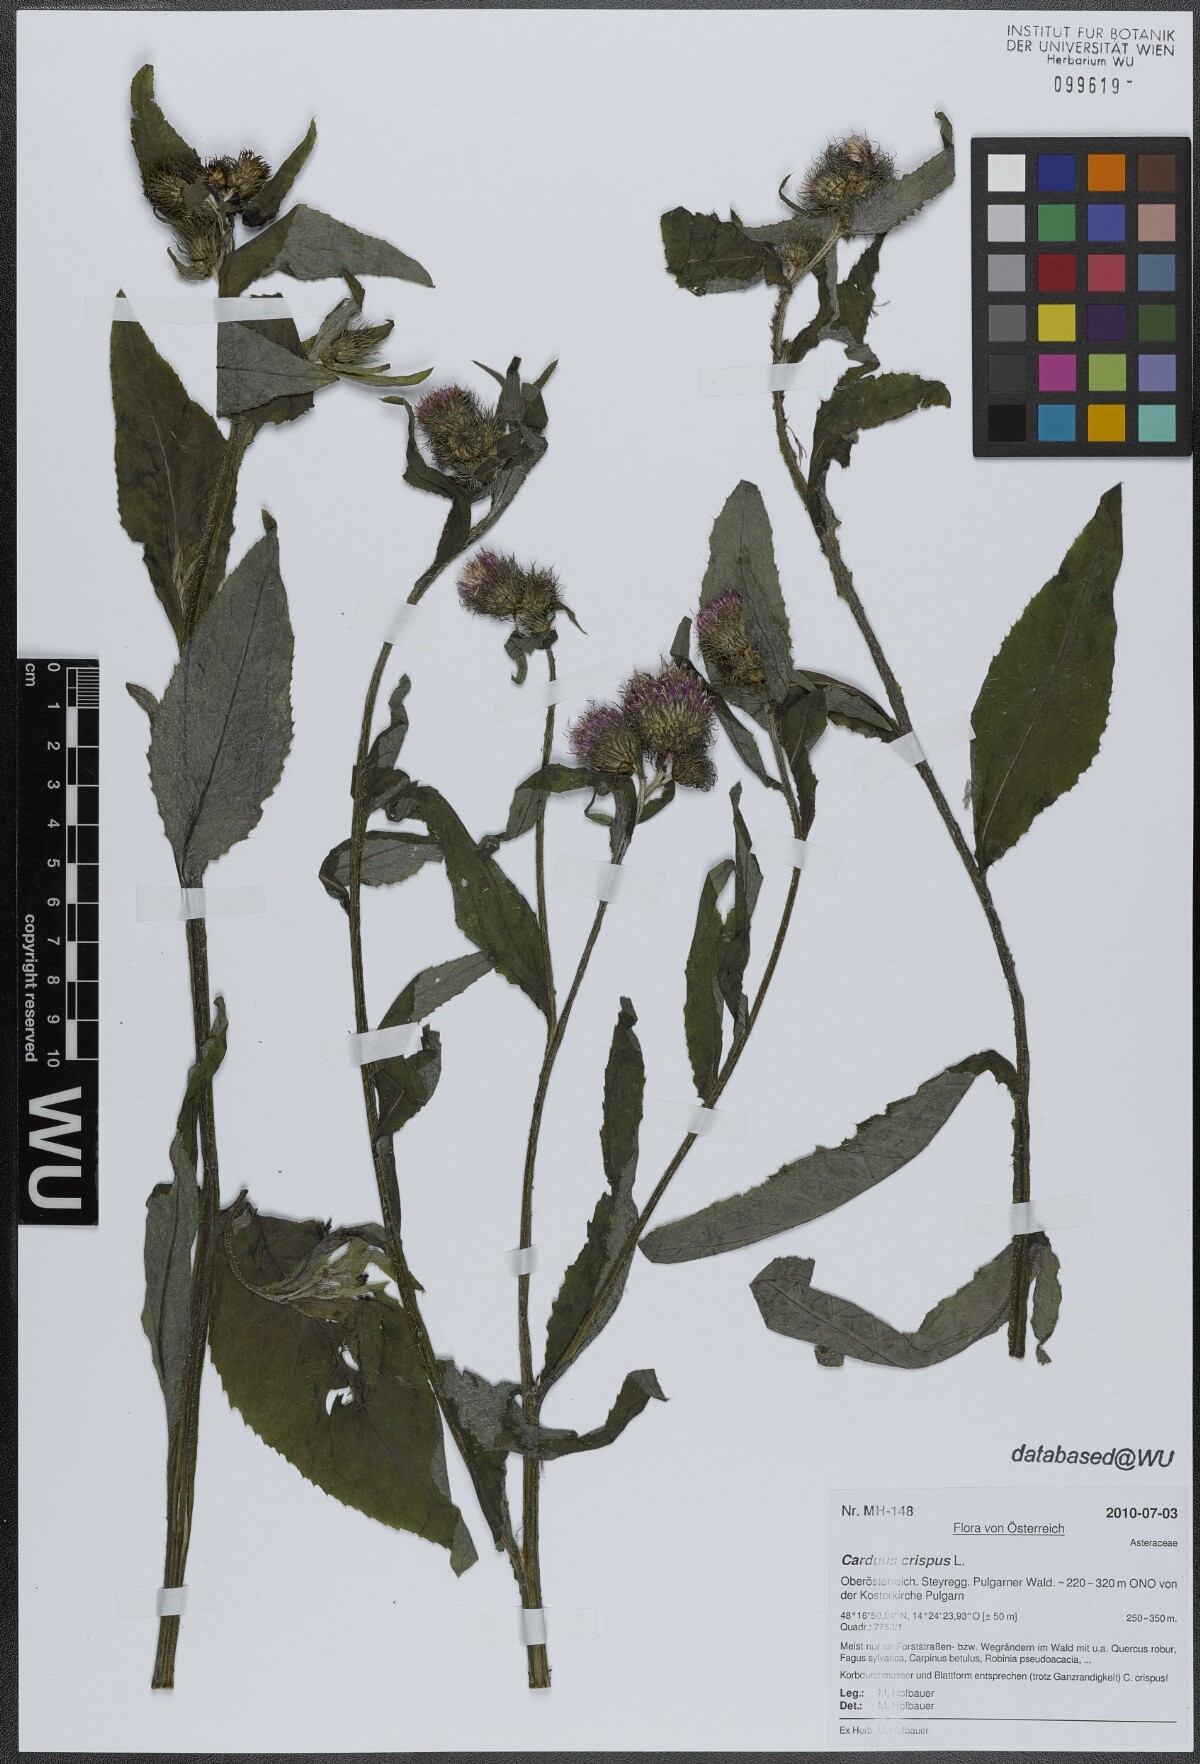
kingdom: Plantae
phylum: Tracheophyta
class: Magnoliopsida
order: Asterales
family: Asteraceae
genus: Carduus
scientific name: Carduus crispus
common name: Welted thistle
